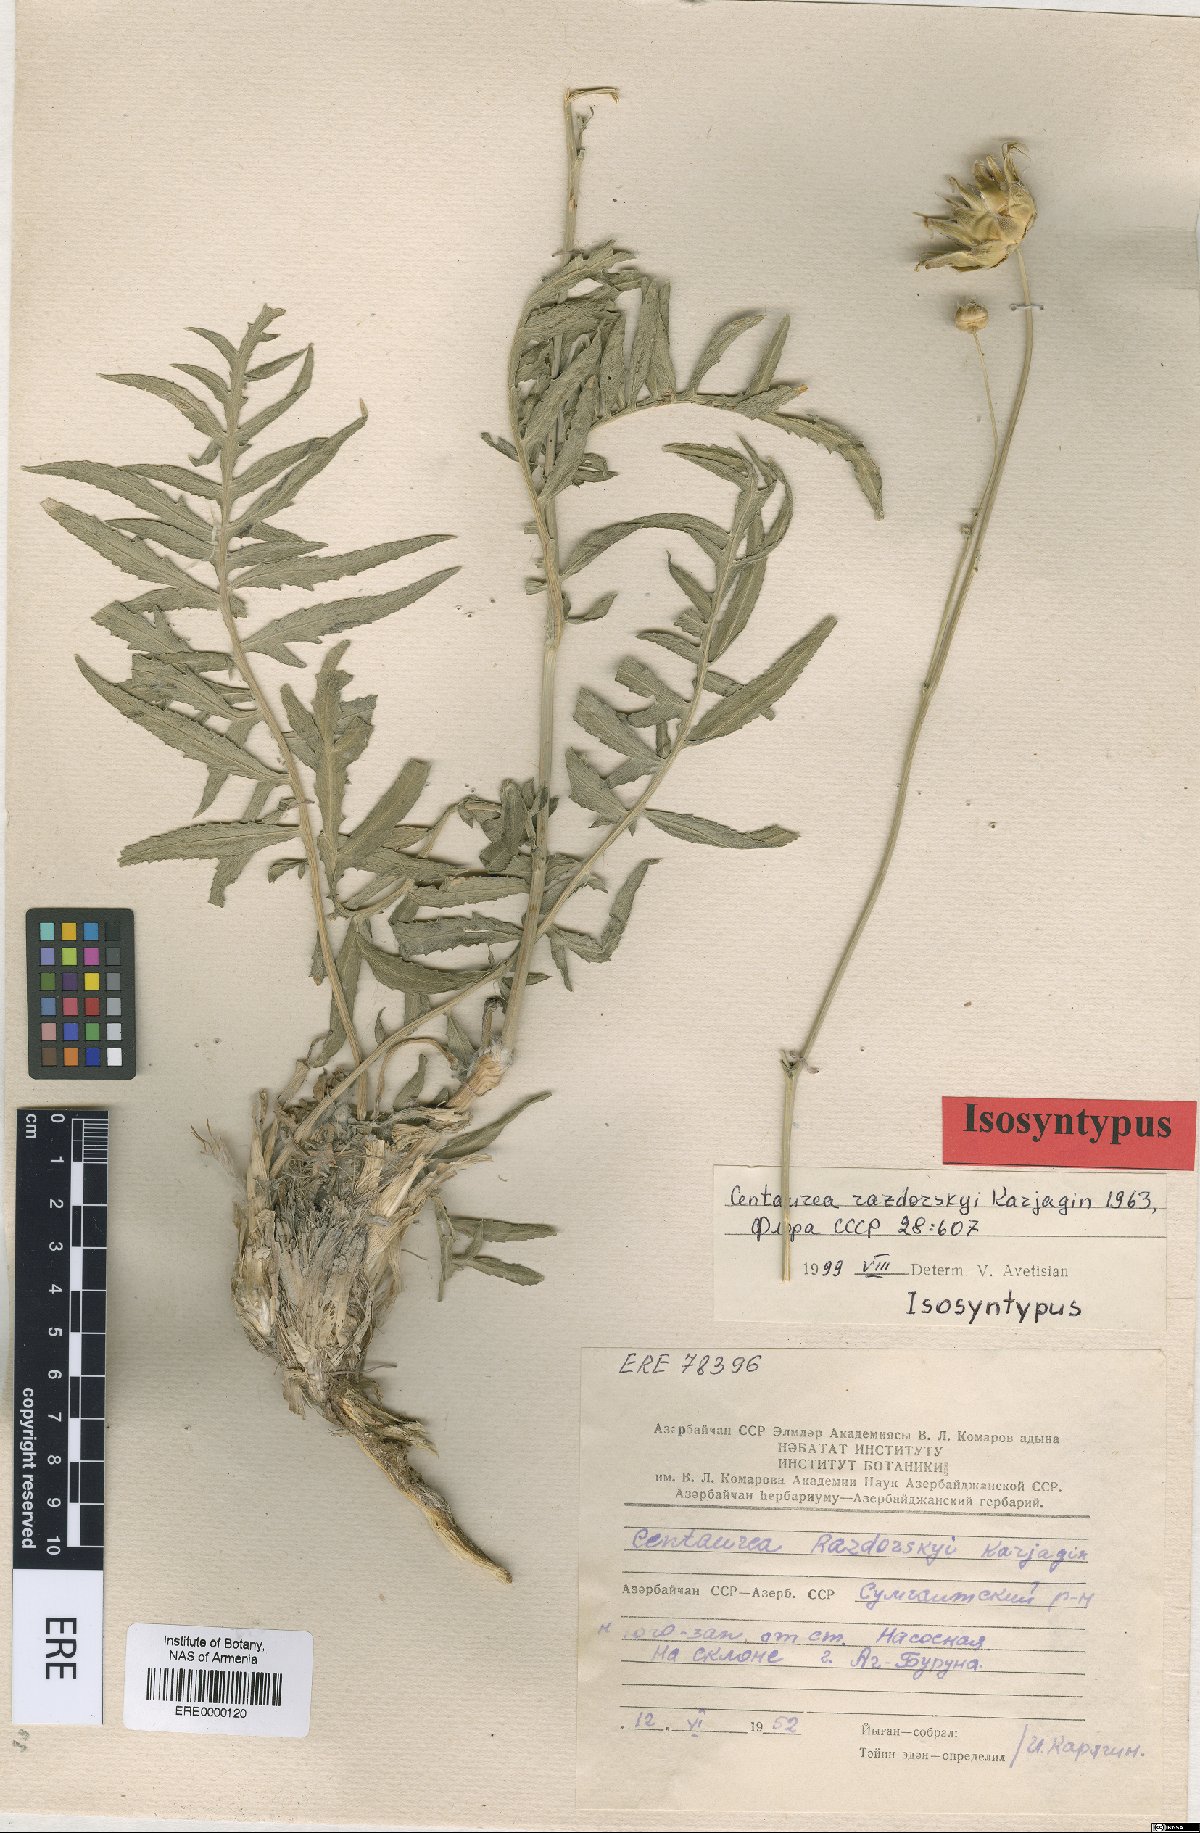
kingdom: Plantae
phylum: Tracheophyta
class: Magnoliopsida
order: Asterales
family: Asteraceae
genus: Rhaponticoides
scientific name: Rhaponticoides razdorskyi
